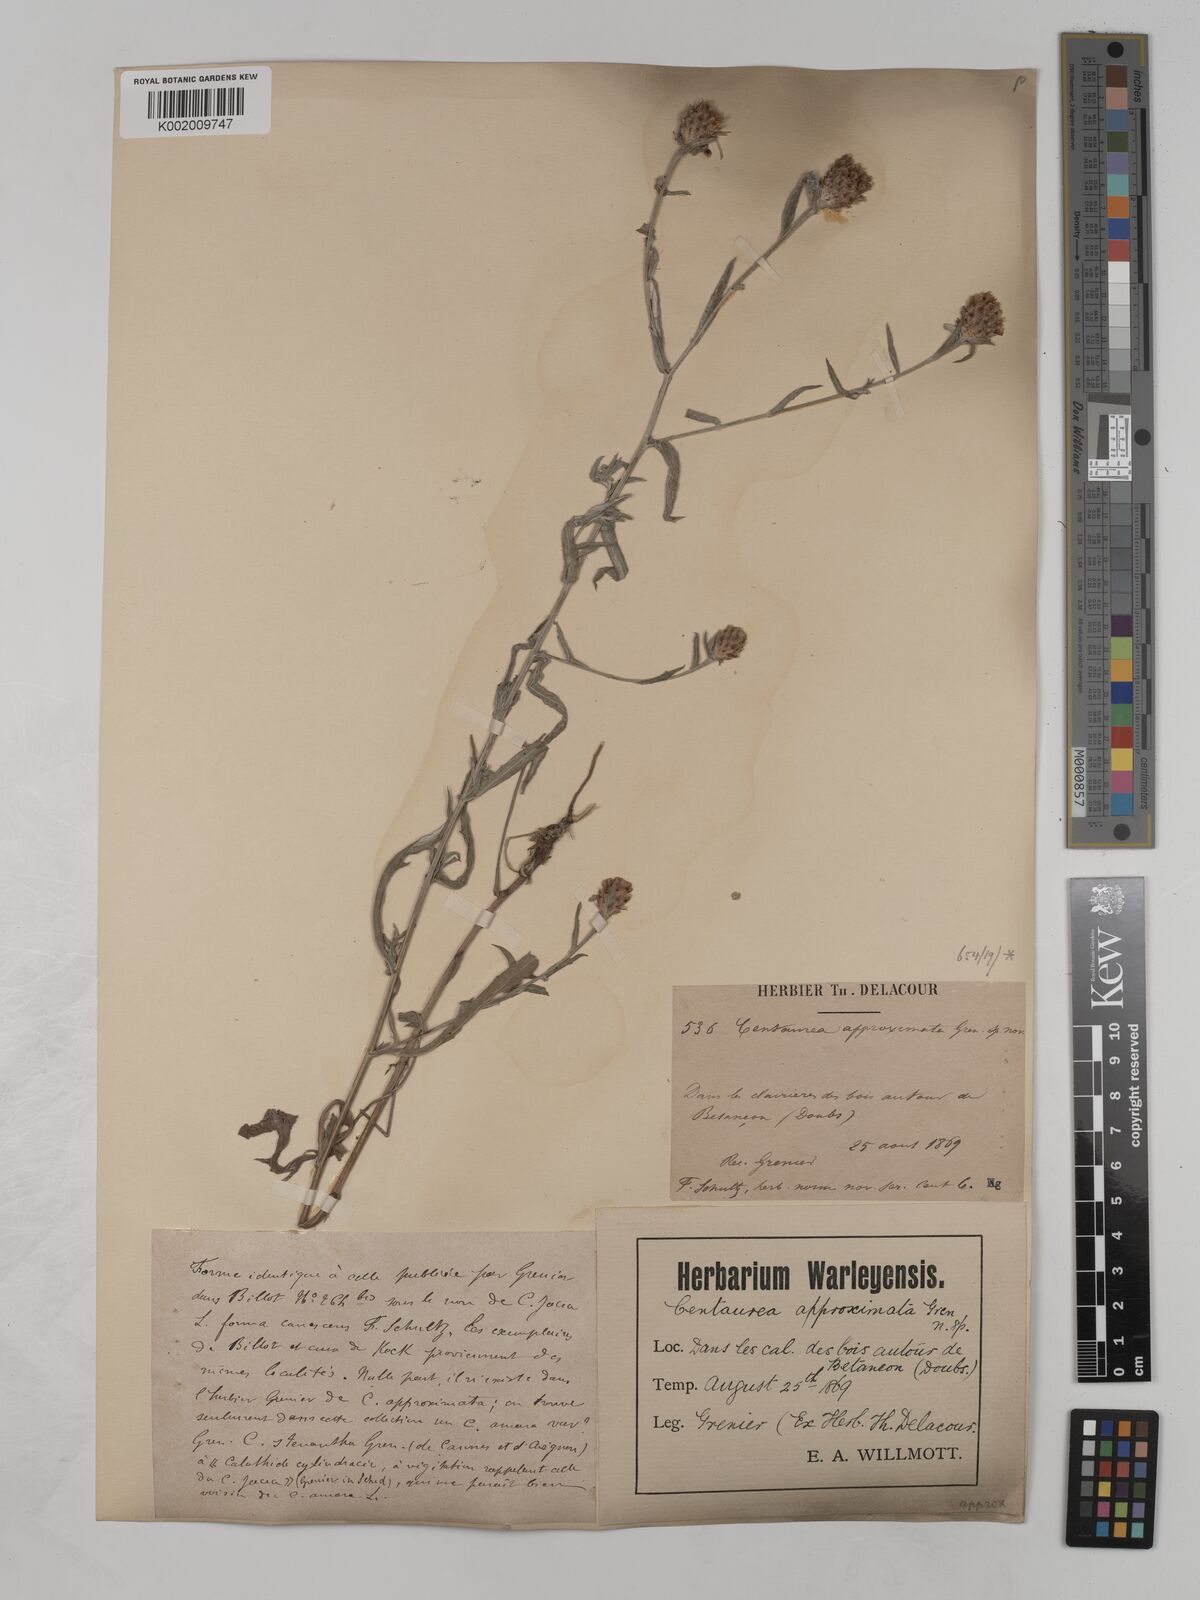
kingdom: Plantae
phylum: Tracheophyta
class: Magnoliopsida
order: Asterales
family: Asteraceae
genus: Centaurea
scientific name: Centaurea timbalii
